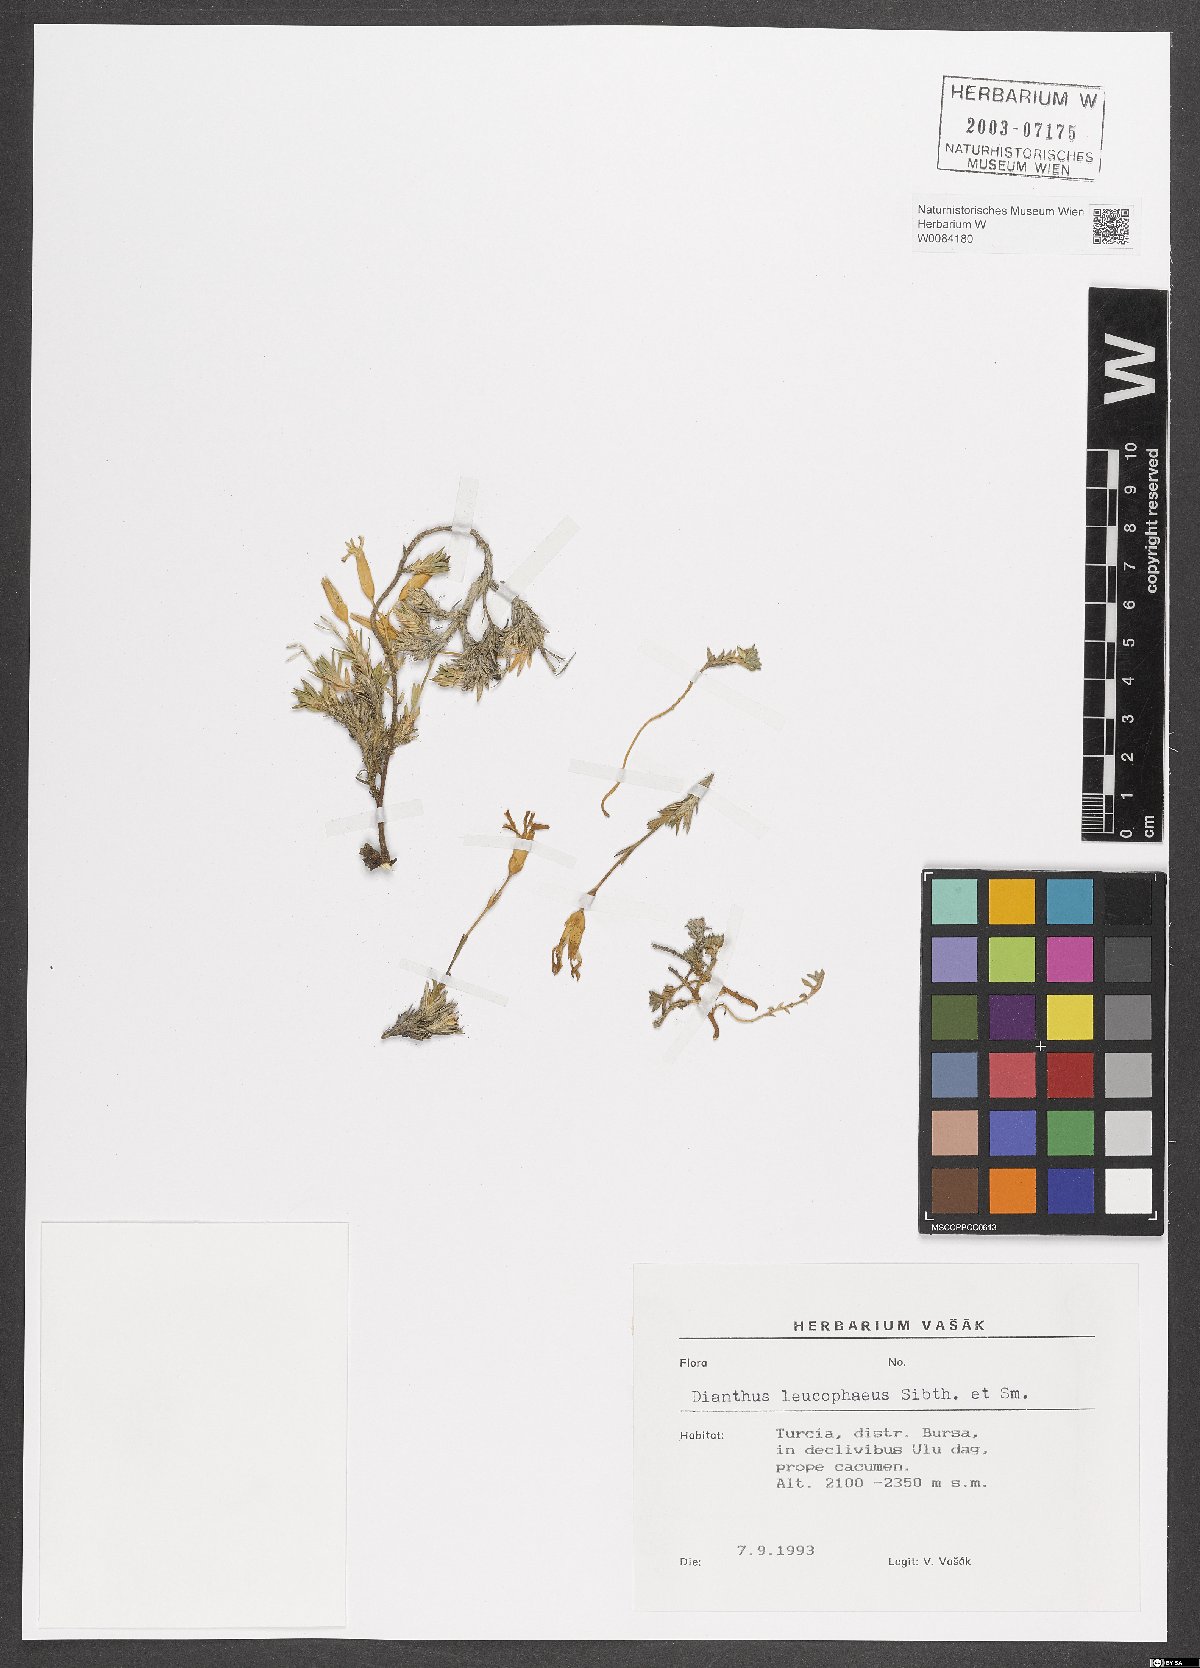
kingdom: Plantae
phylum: Tracheophyta
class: Magnoliopsida
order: Caryophyllales
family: Caryophyllaceae
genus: Dianthus
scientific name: Dianthus leucophaeus
